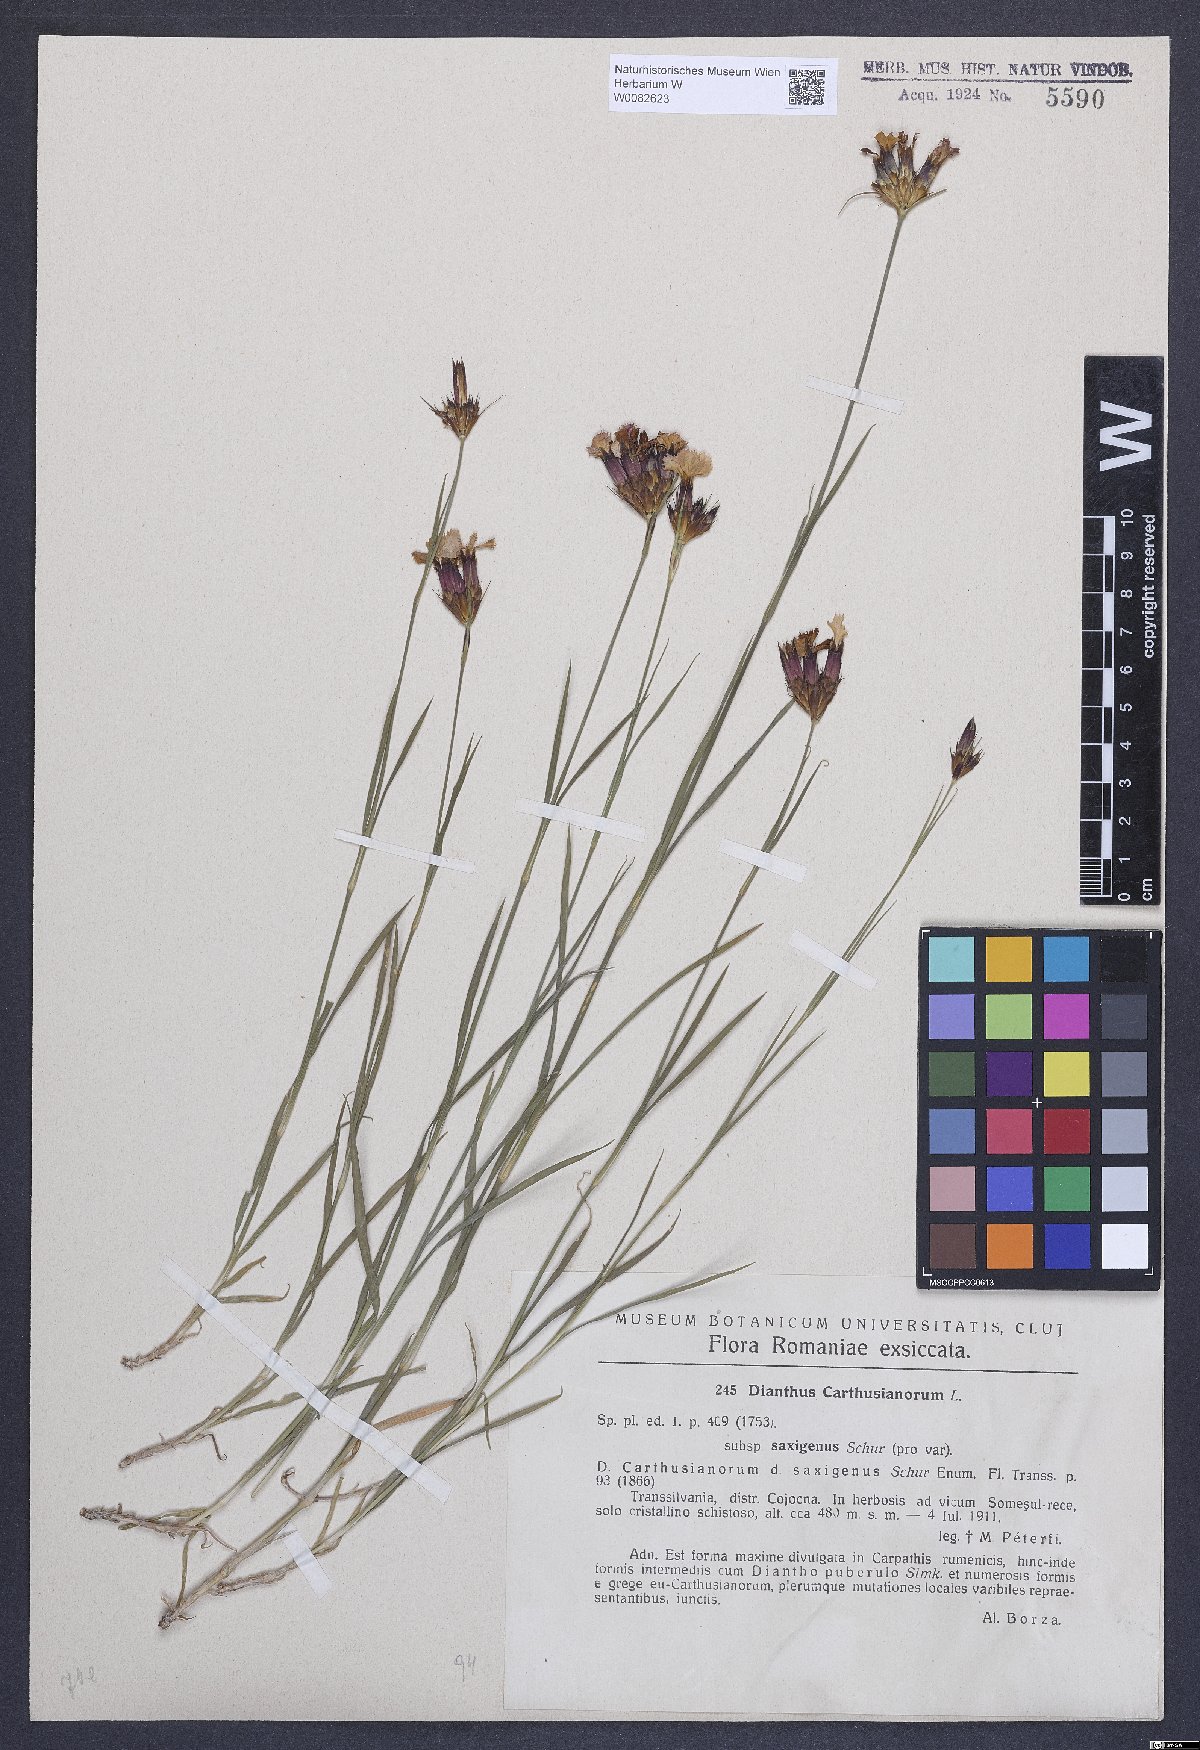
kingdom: Plantae
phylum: Tracheophyta
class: Magnoliopsida
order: Caryophyllales
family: Caryophyllaceae
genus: Dianthus
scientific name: Dianthus carthusianorum
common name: Carthusian pink
